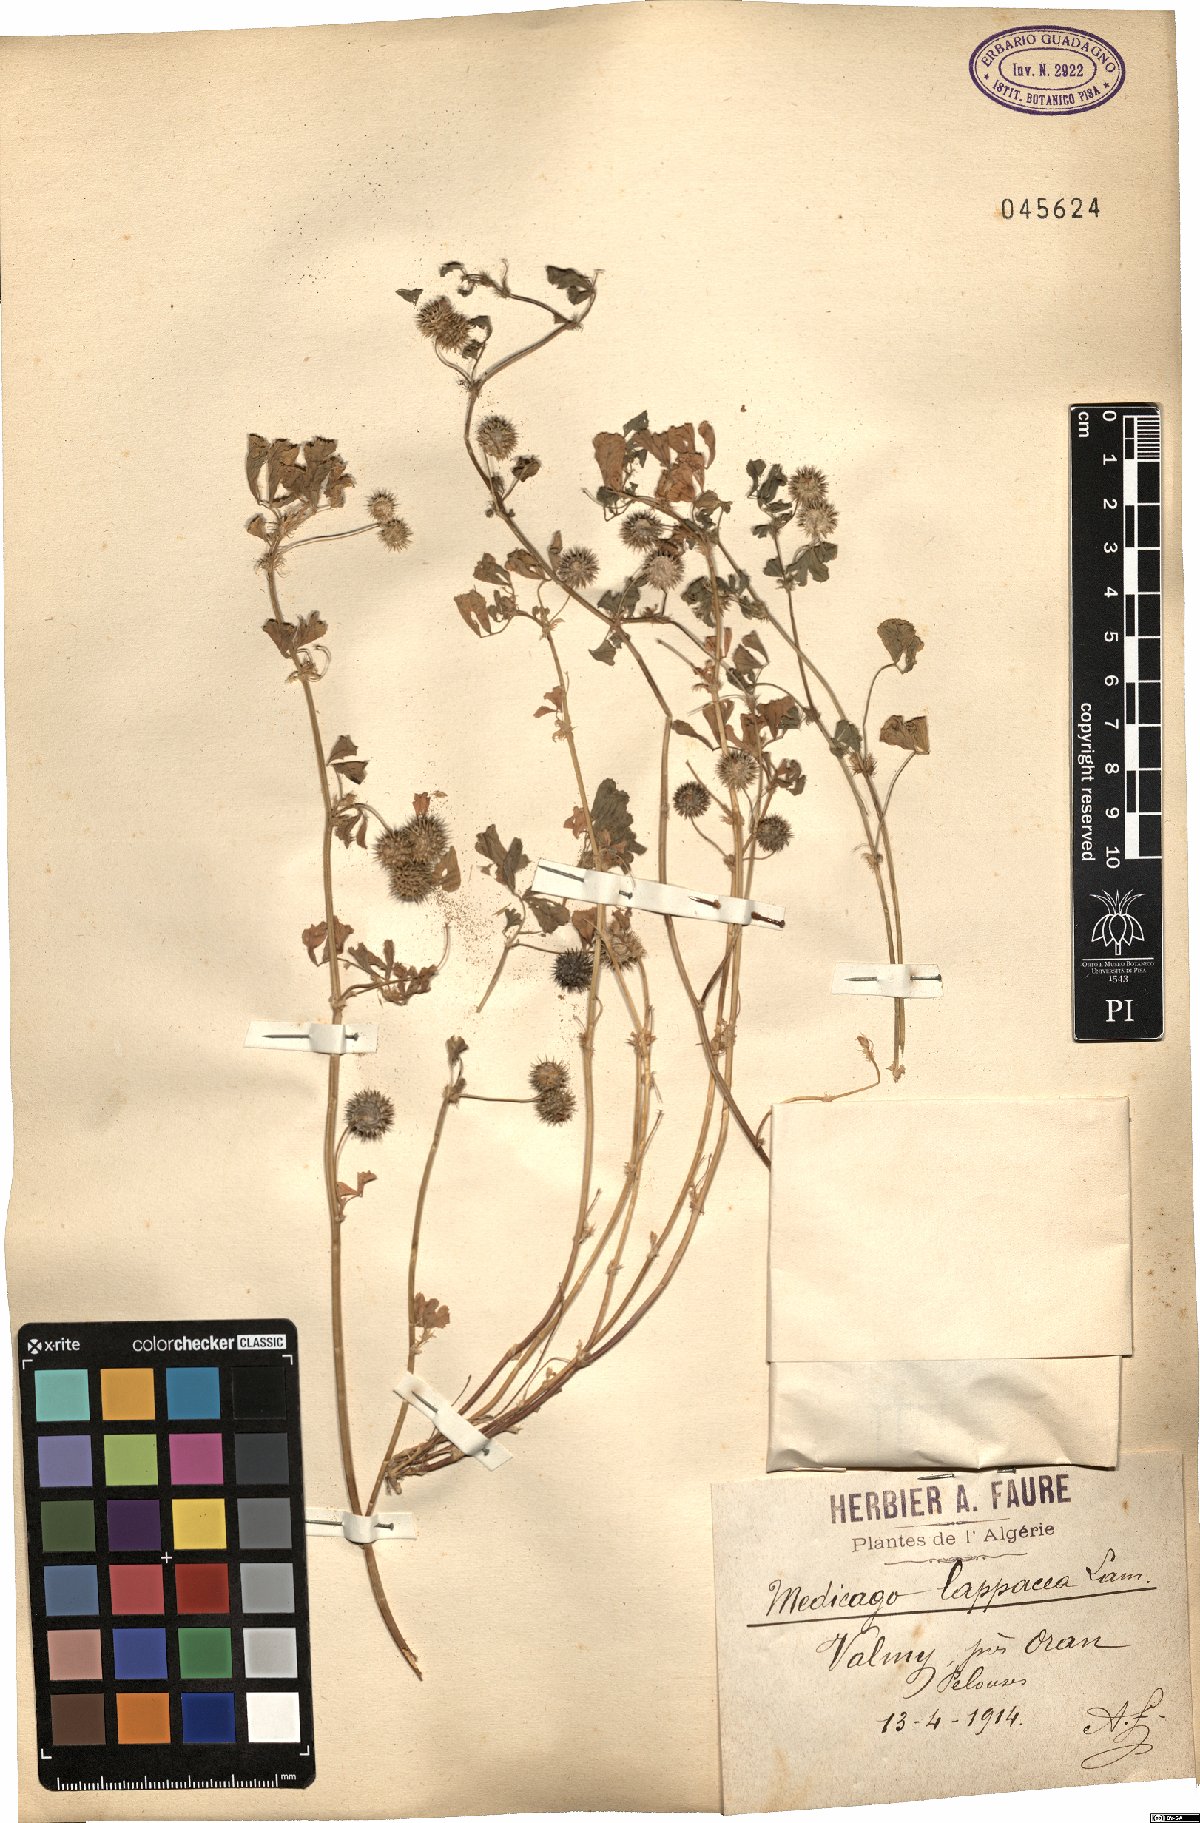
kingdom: Plantae
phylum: Tracheophyta
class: Magnoliopsida
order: Fabales
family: Fabaceae
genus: Medicago
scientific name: Medicago polymorpha
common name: Burclover
